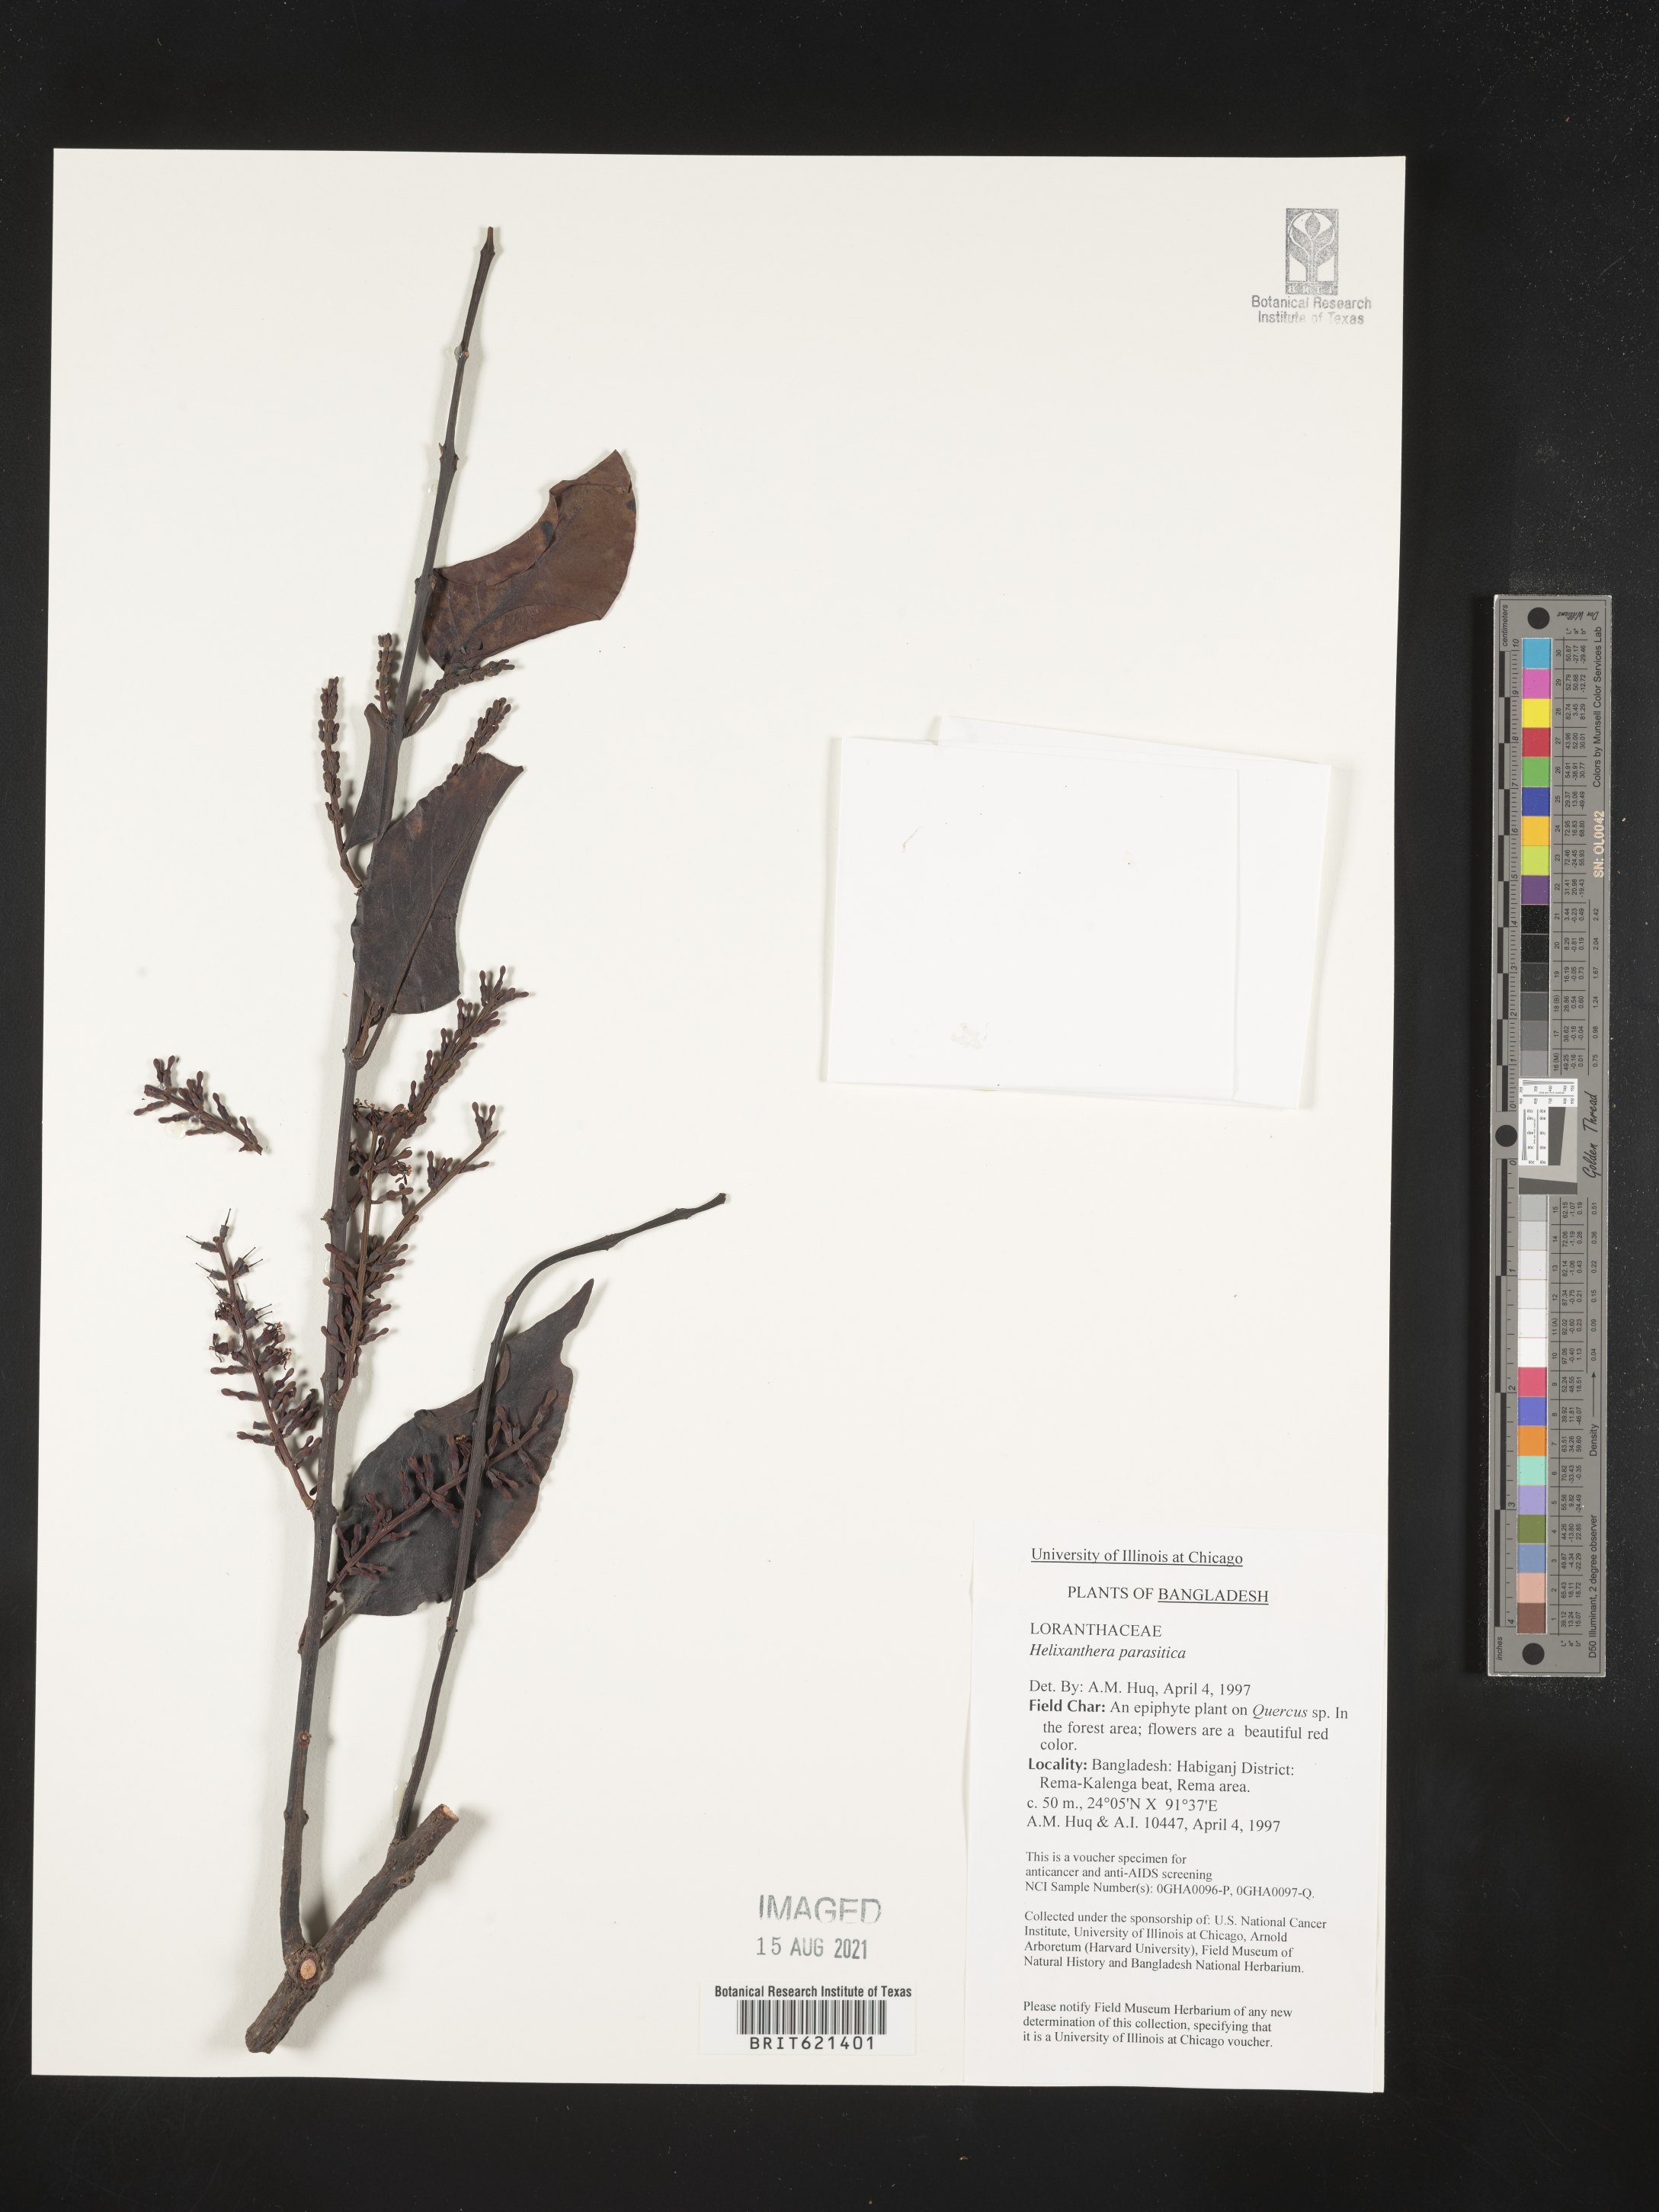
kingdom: Plantae
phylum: Tracheophyta
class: Magnoliopsida
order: Santalales
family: Loranthaceae
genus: Helixanthera
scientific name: Helixanthera parasitica
